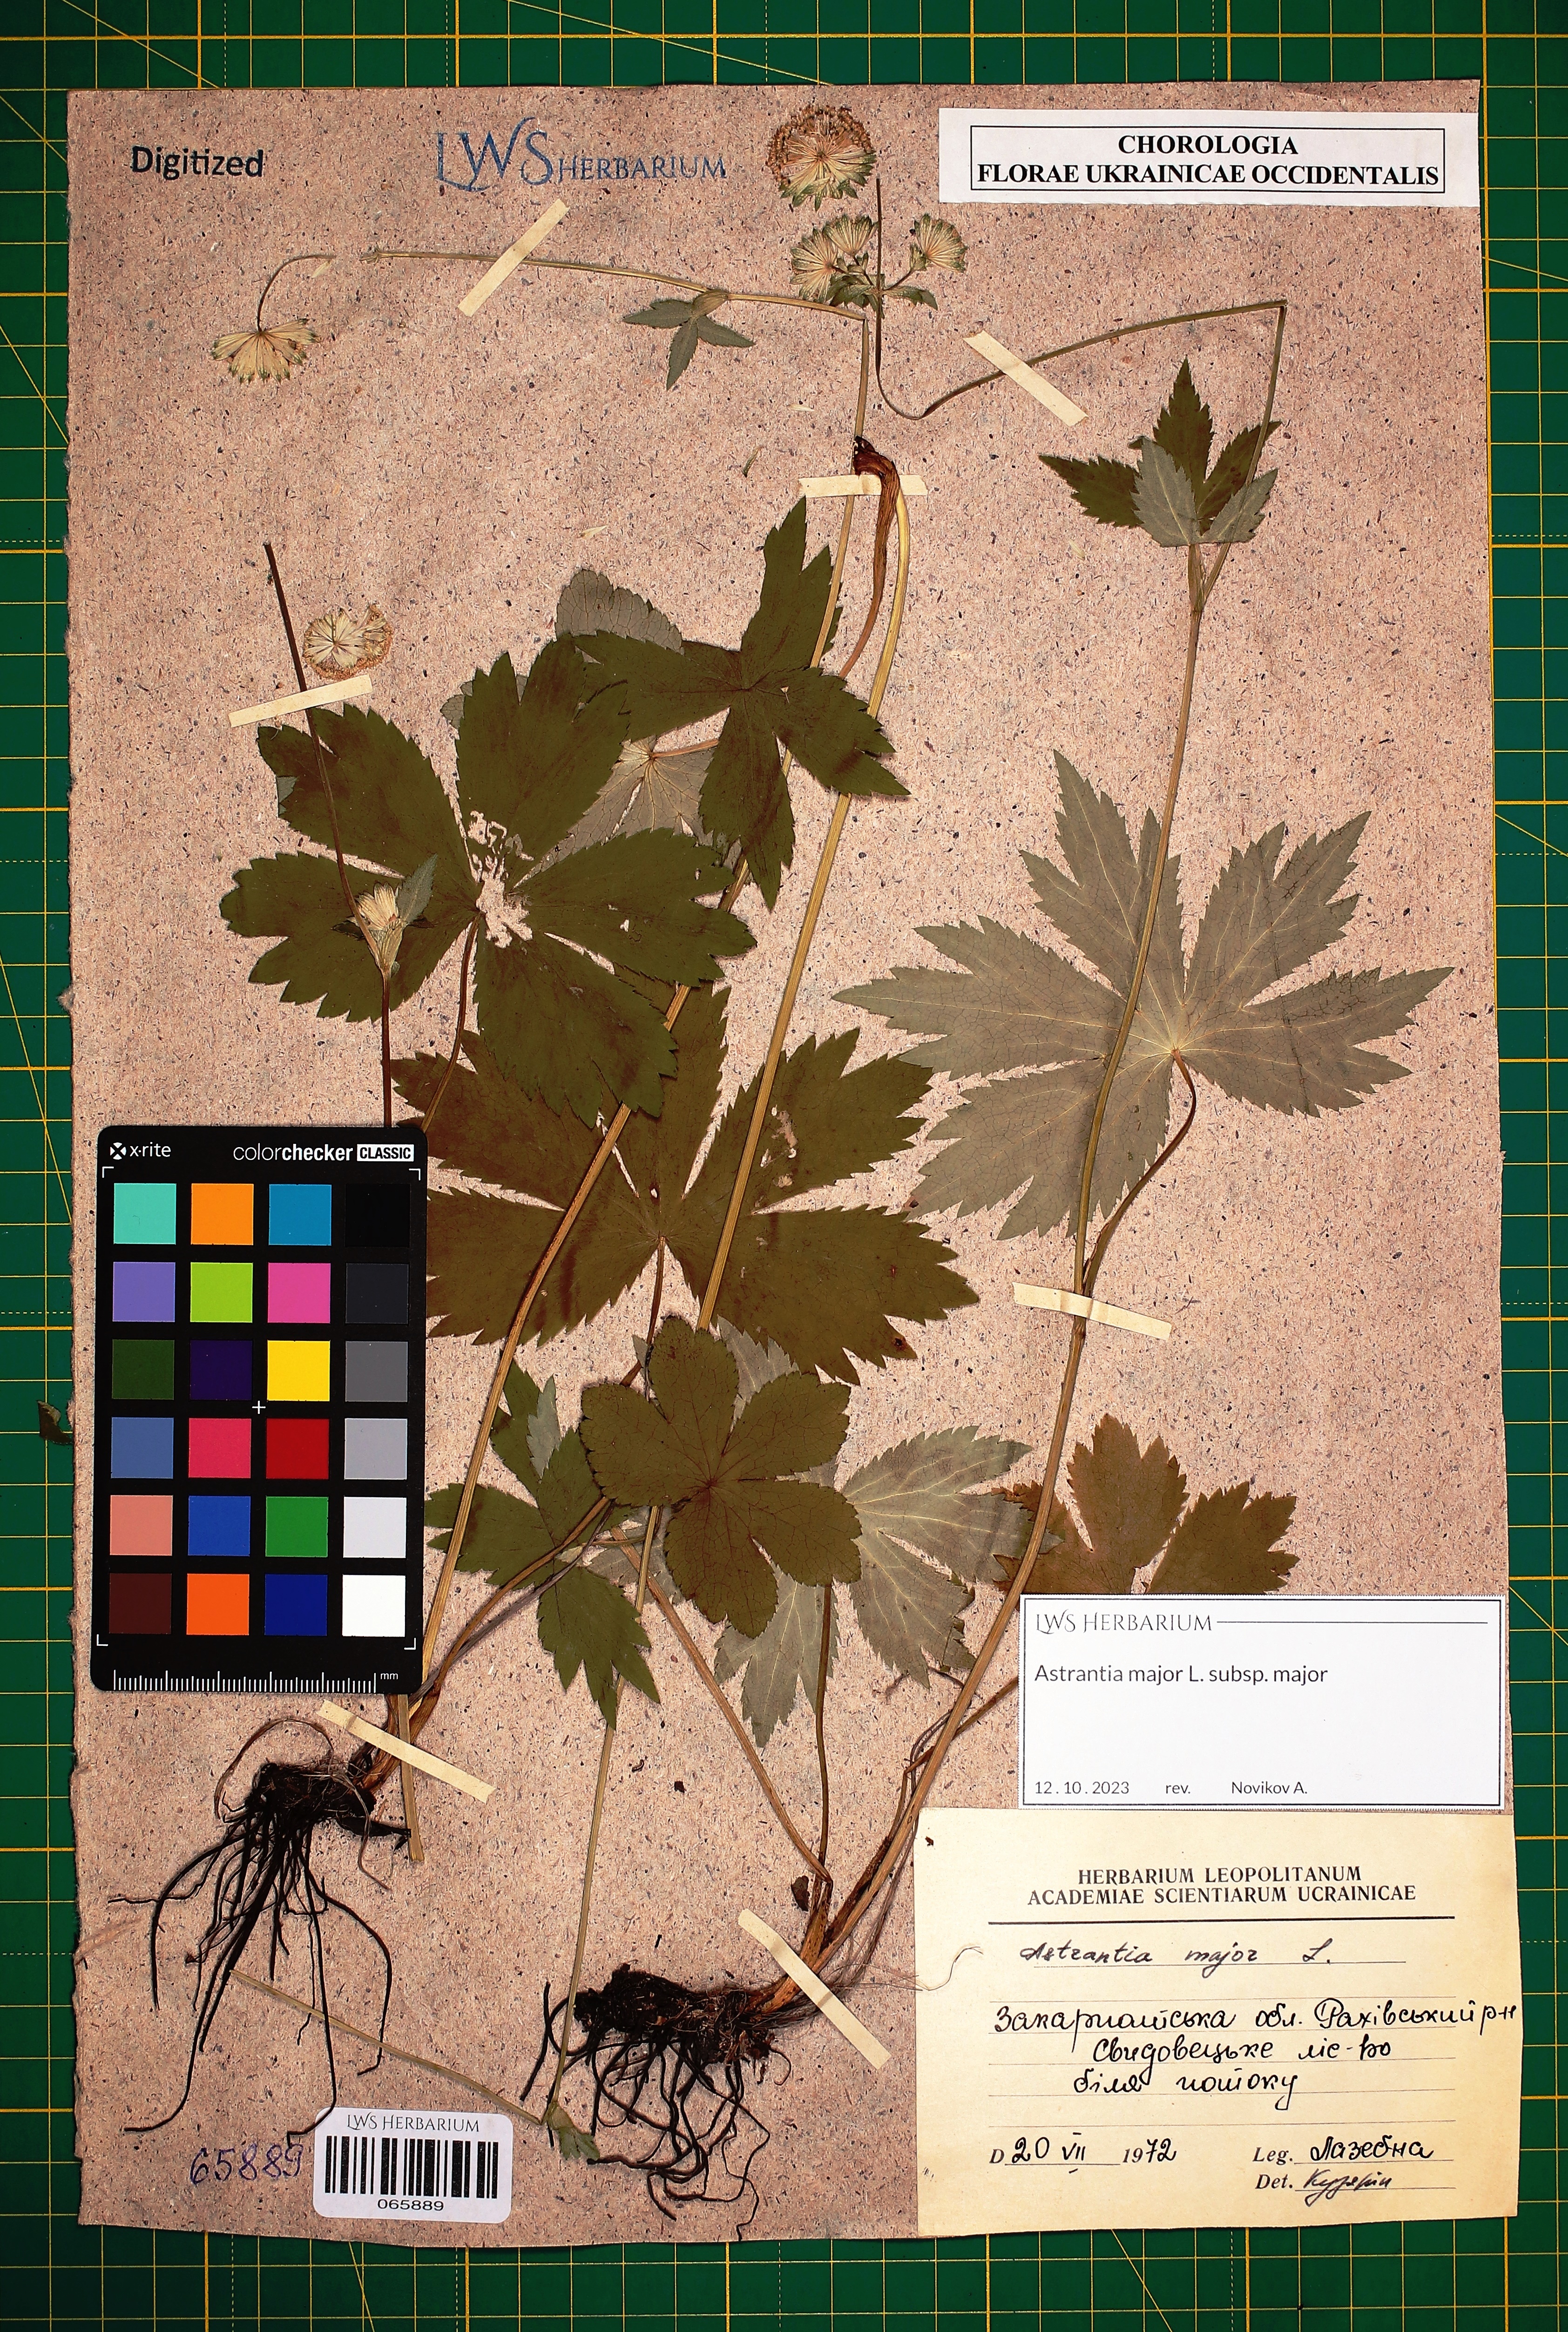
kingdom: Plantae
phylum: Tracheophyta
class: Magnoliopsida
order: Apiales
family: Apiaceae
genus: Astrantia
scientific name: Astrantia major
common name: Greater masterwort
